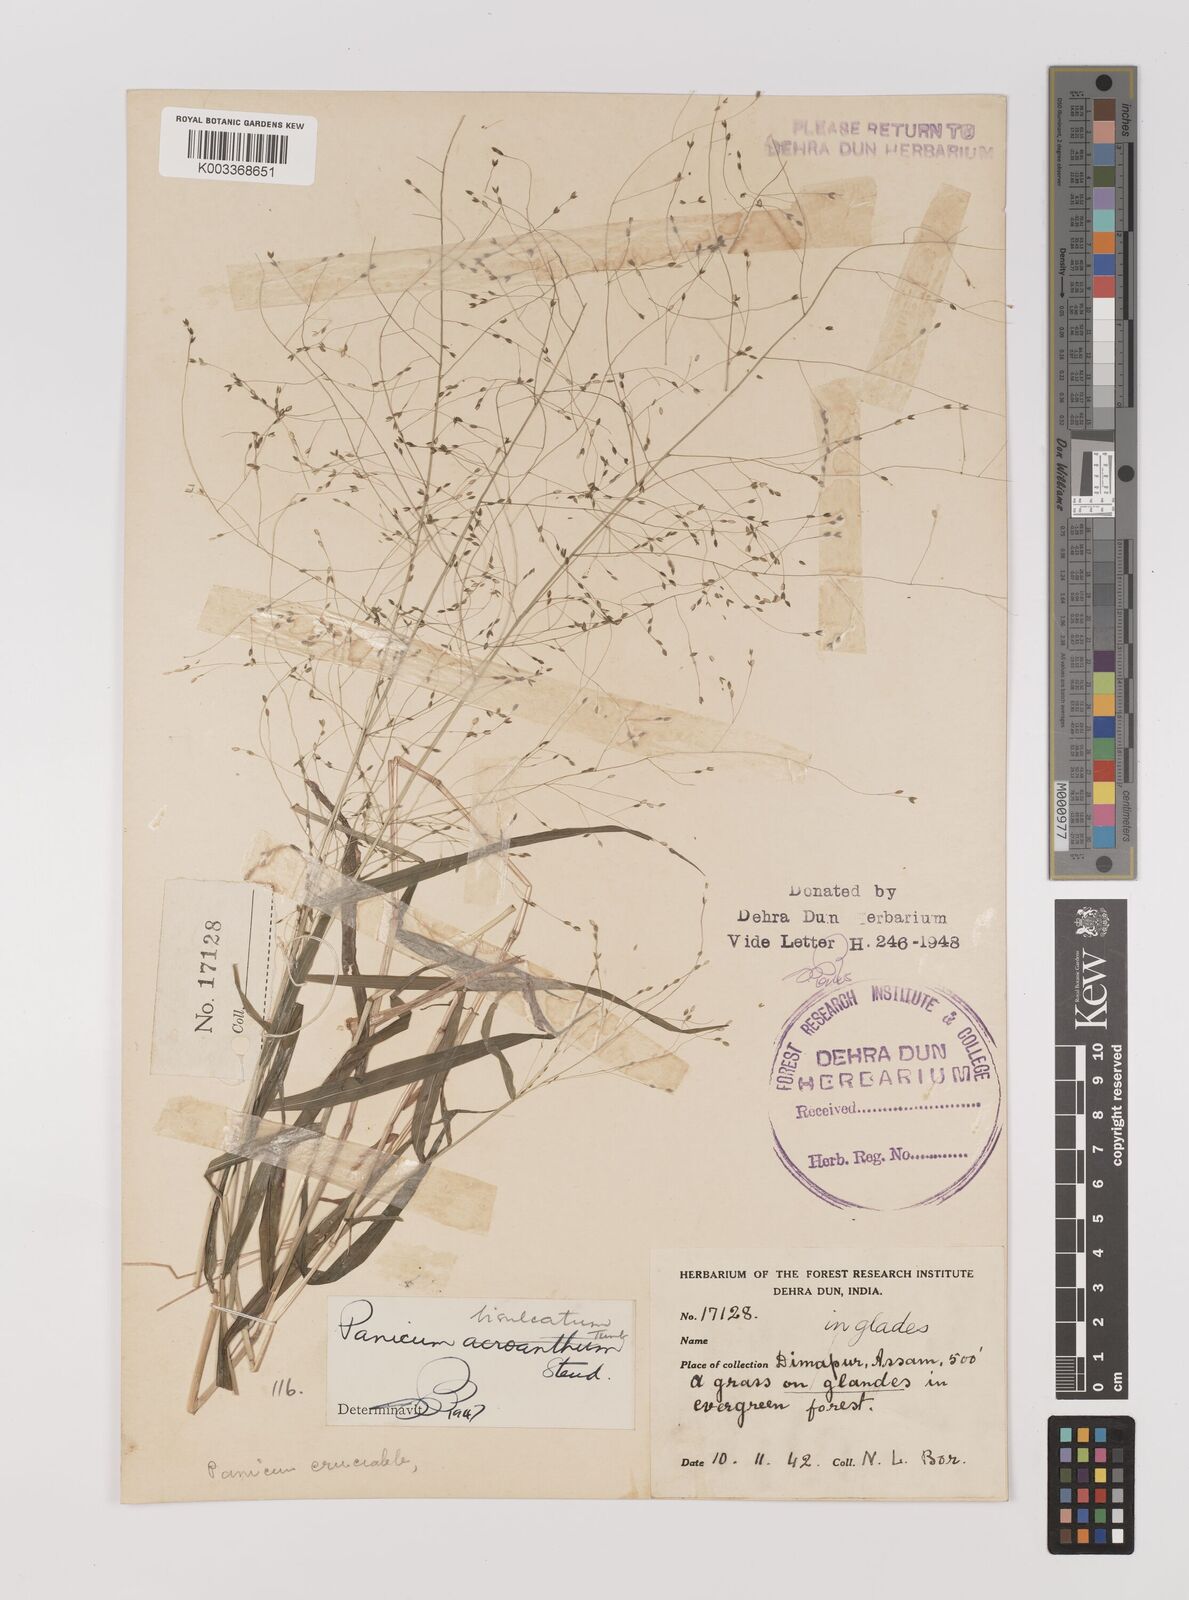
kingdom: Plantae
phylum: Tracheophyta
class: Liliopsida
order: Poales
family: Poaceae
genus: Panicum
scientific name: Panicum bisulcatum
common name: Japanese panicgrass
